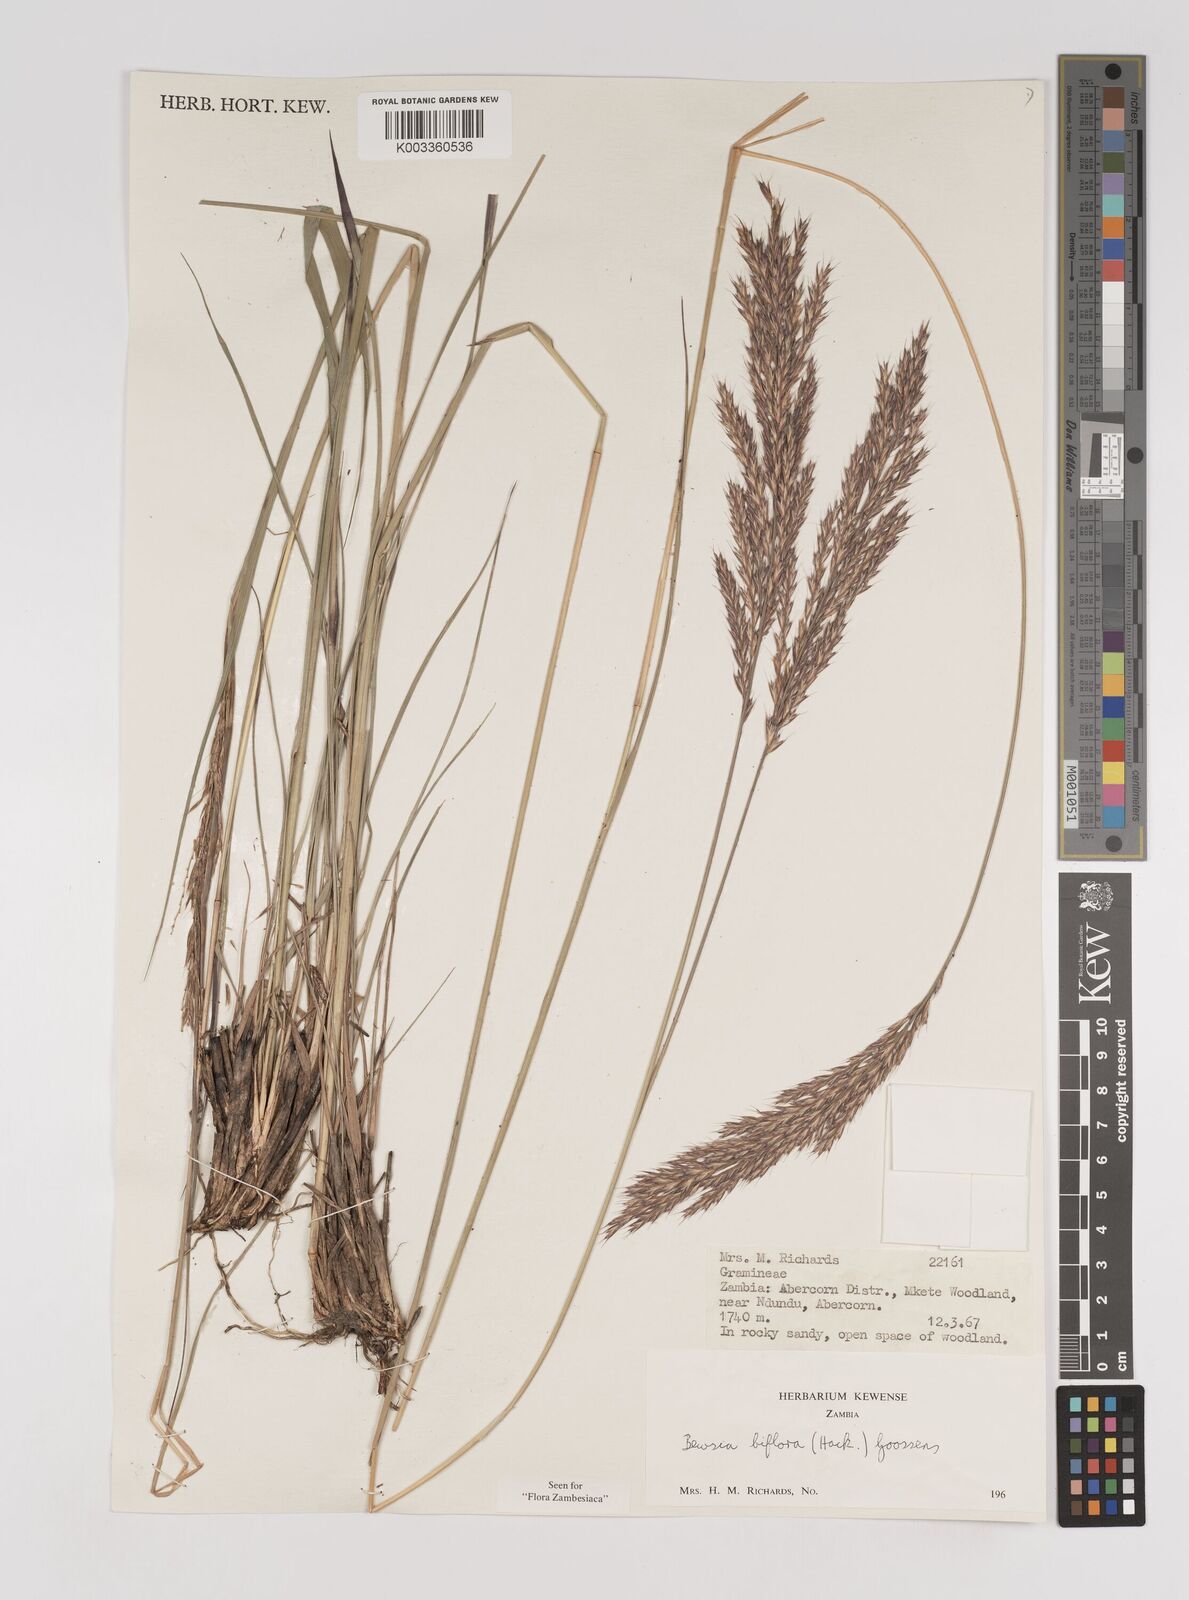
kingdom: Plantae
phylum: Tracheophyta
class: Liliopsida
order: Poales
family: Poaceae
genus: Bewsia
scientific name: Bewsia biflora
